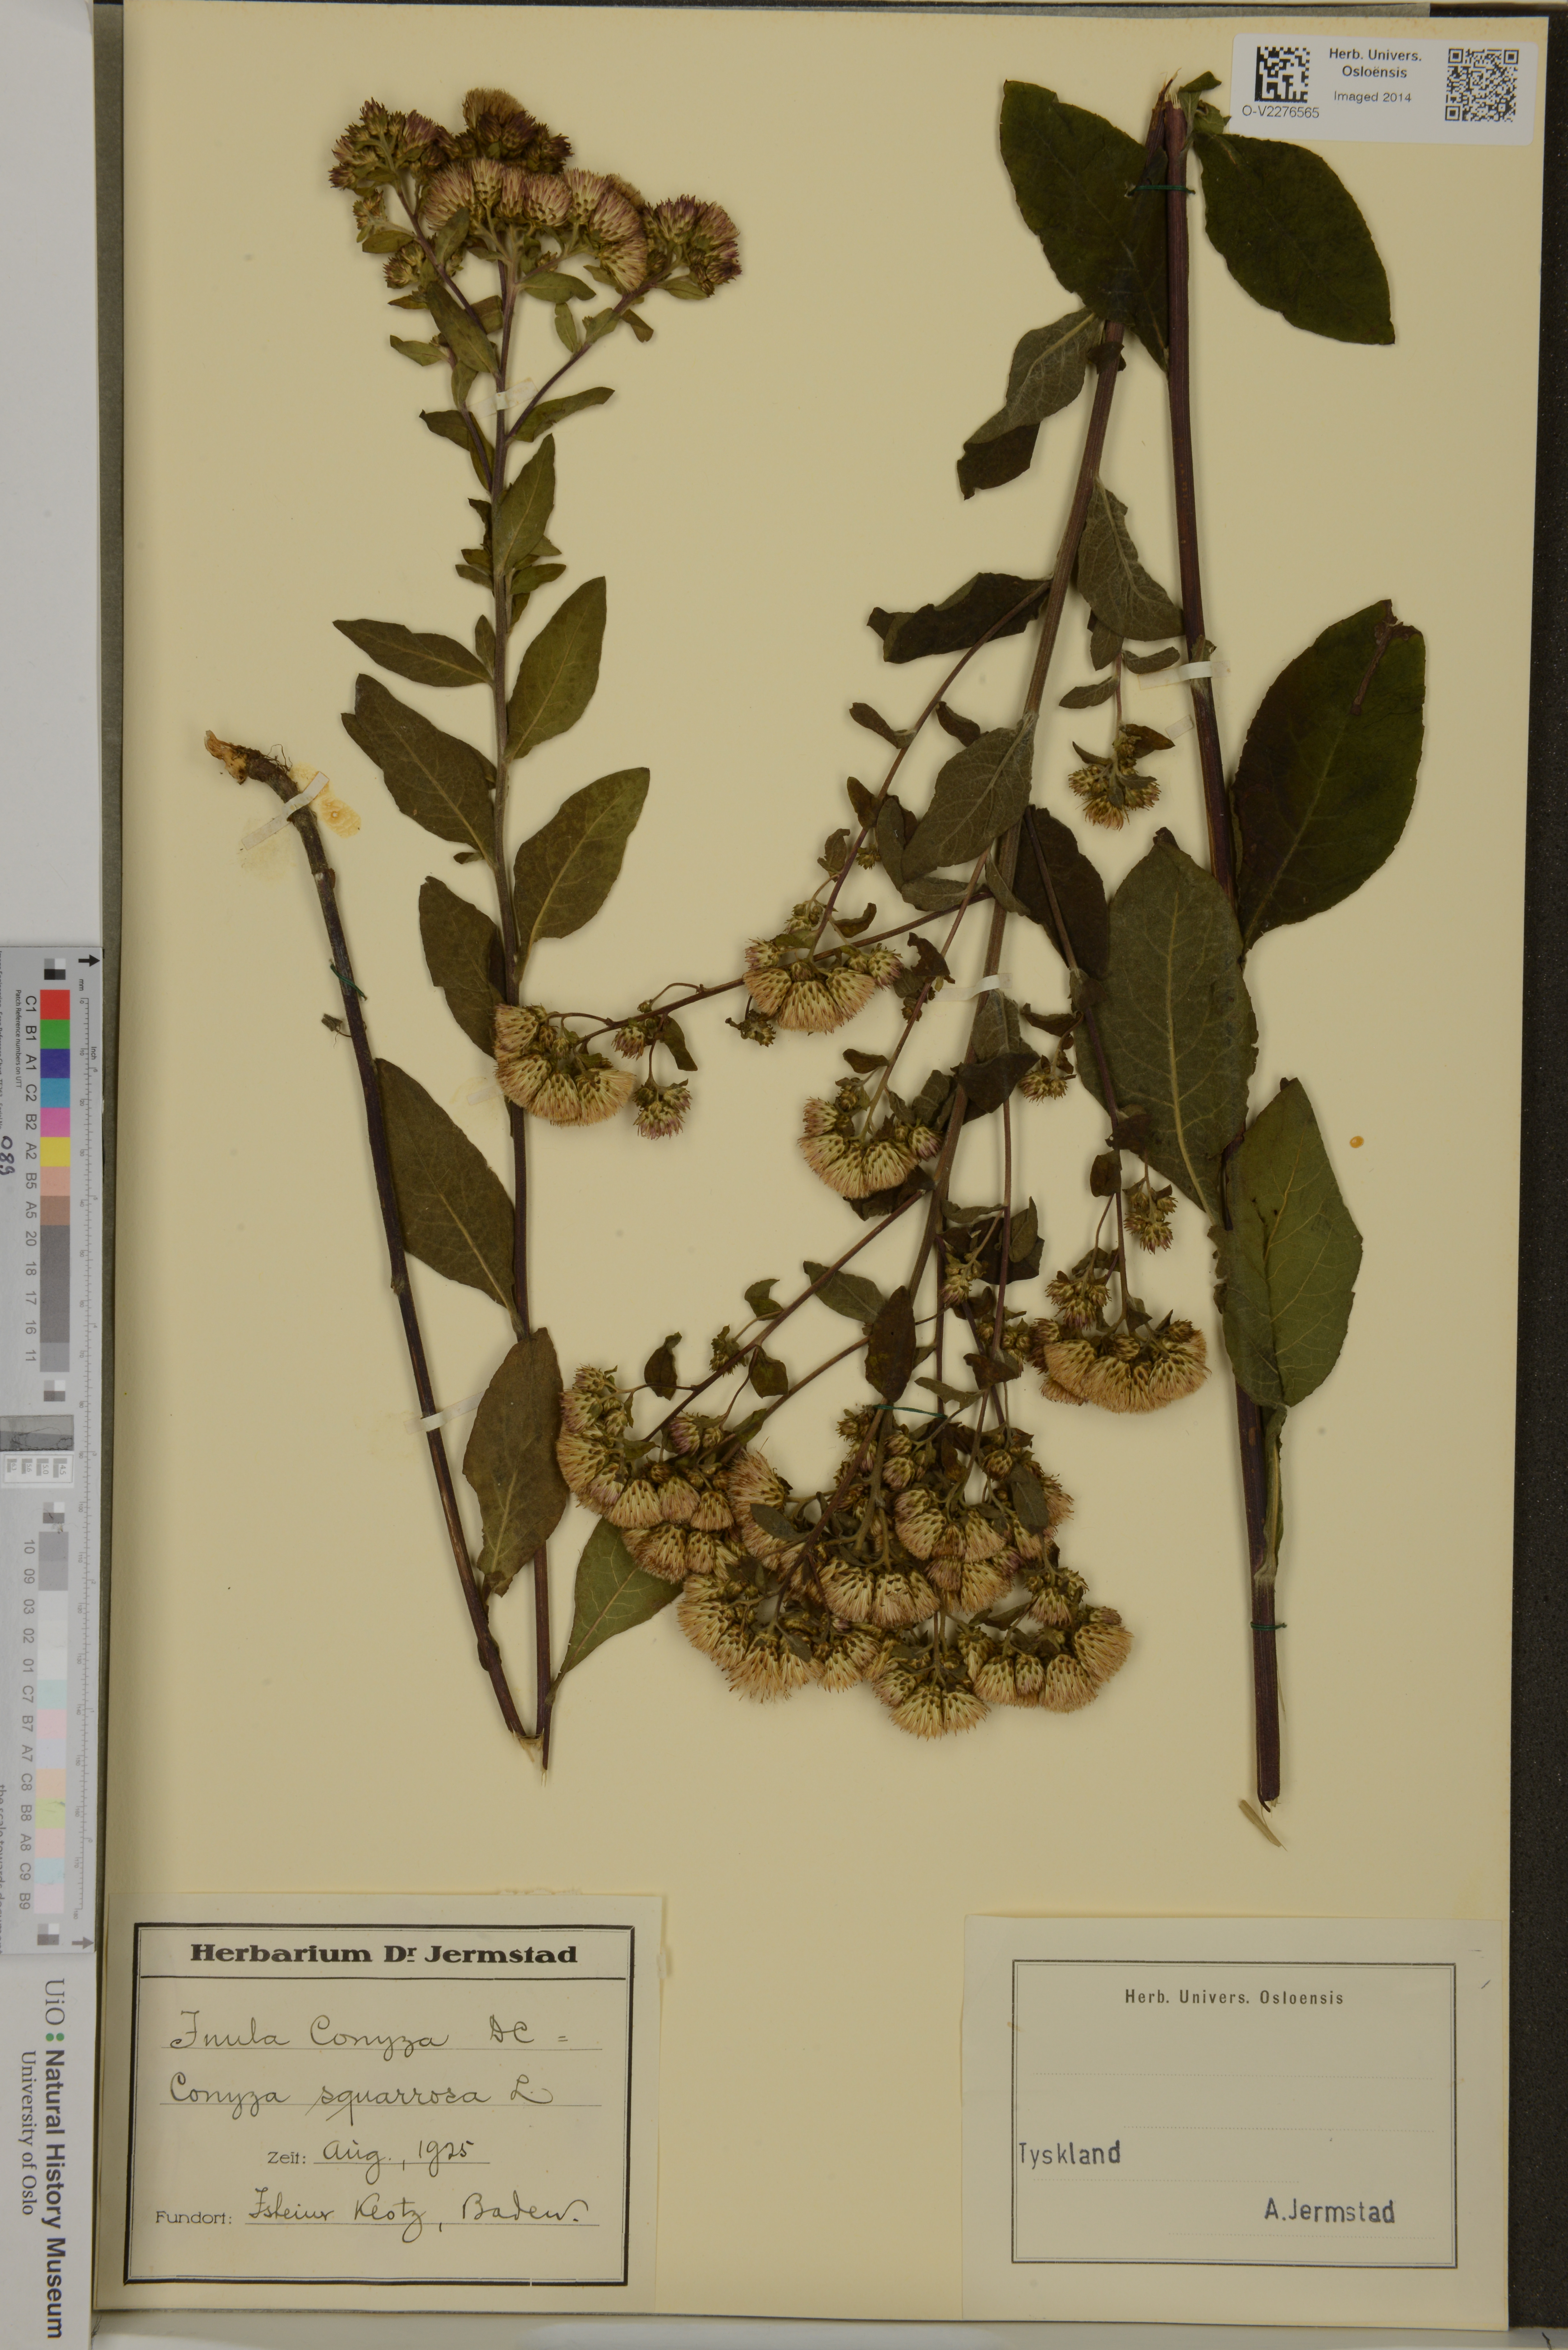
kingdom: Plantae
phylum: Tracheophyta
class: Magnoliopsida
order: Asterales
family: Asteraceae
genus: Pentanema
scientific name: Pentanema squarrosum
